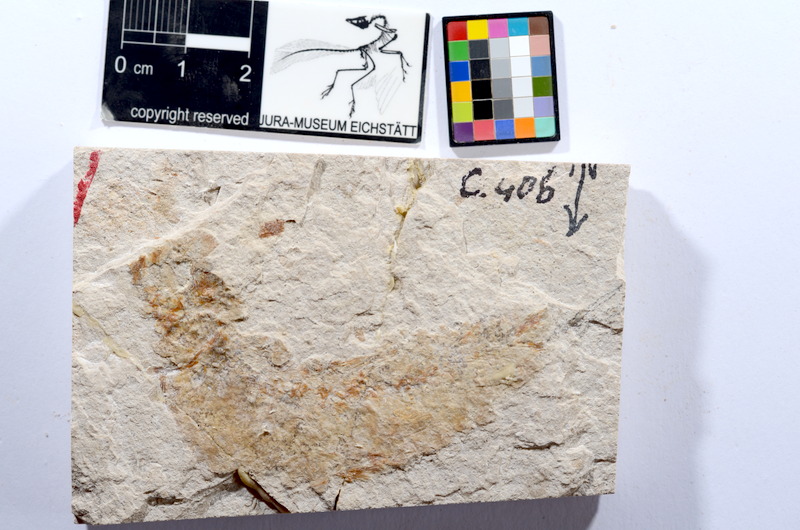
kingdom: Animalia
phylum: Chordata
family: Ascalaboidae
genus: Tharsis
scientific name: Tharsis dubius
